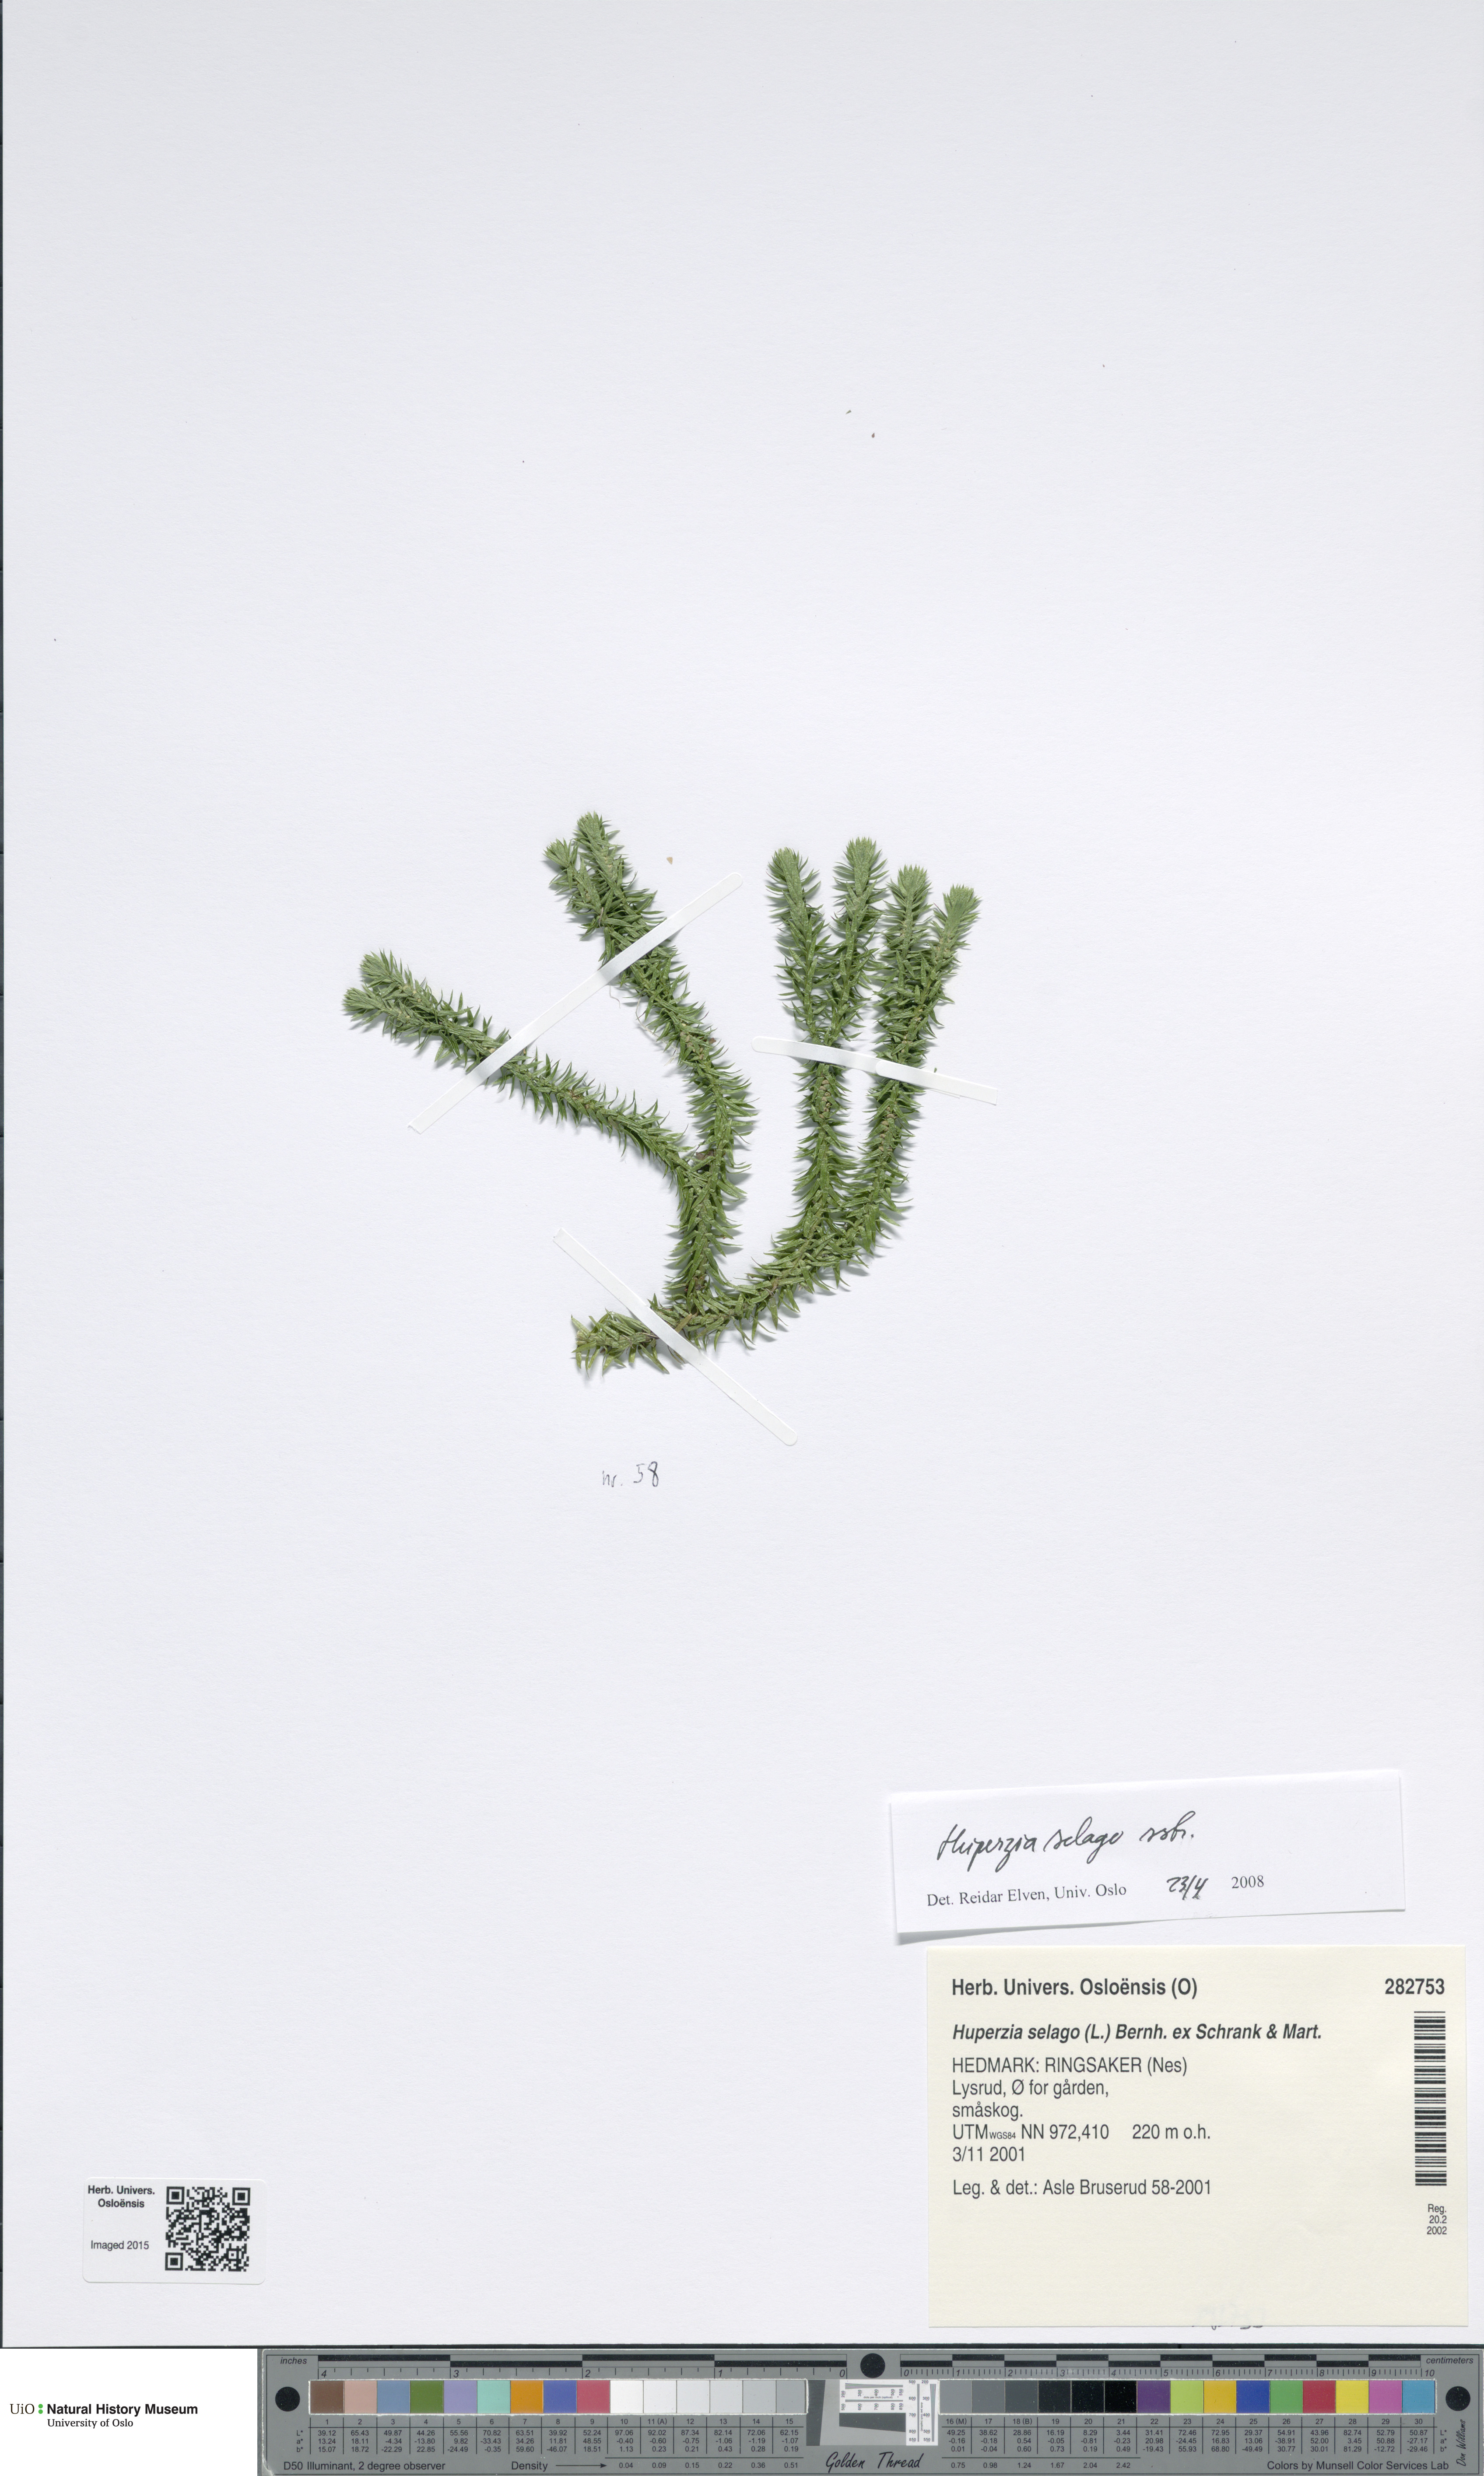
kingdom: Plantae
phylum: Tracheophyta
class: Lycopodiopsida
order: Lycopodiales
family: Lycopodiaceae
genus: Huperzia
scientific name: Huperzia selago
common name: Northern firmoss
